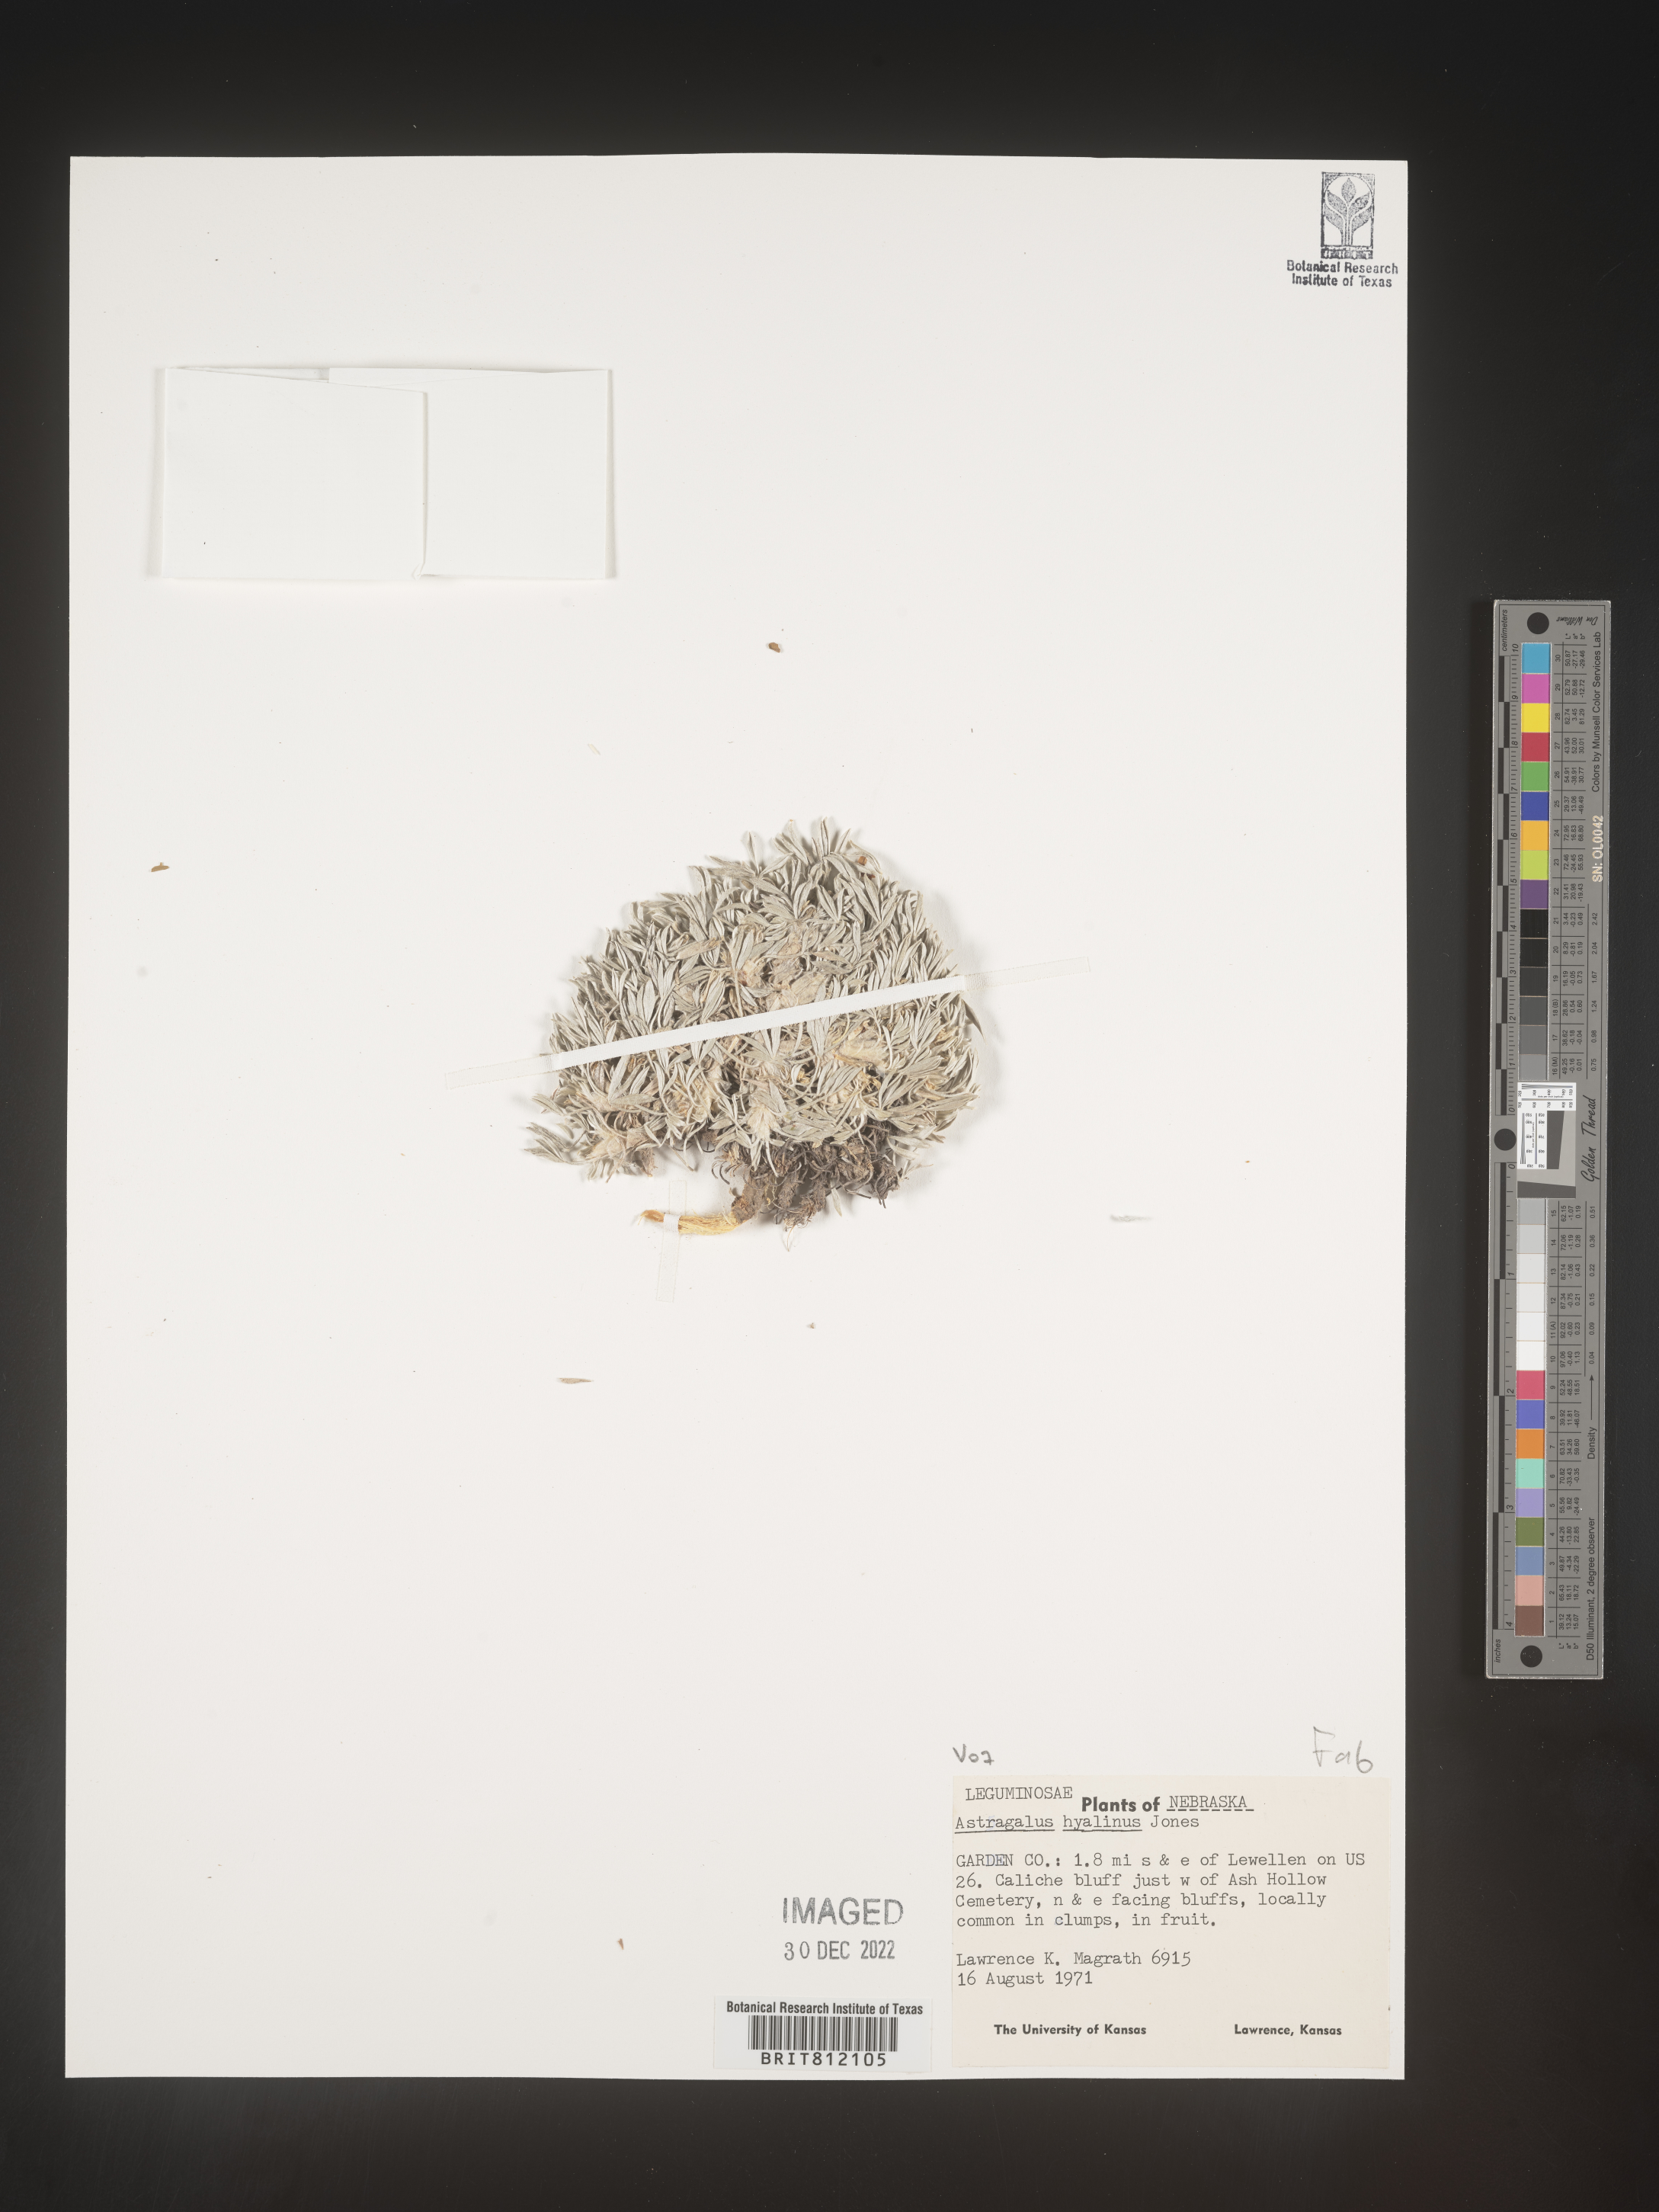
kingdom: Plantae
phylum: Tracheophyta
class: Magnoliopsida
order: Fabales
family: Fabaceae
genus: Astragalus
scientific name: Astragalus
